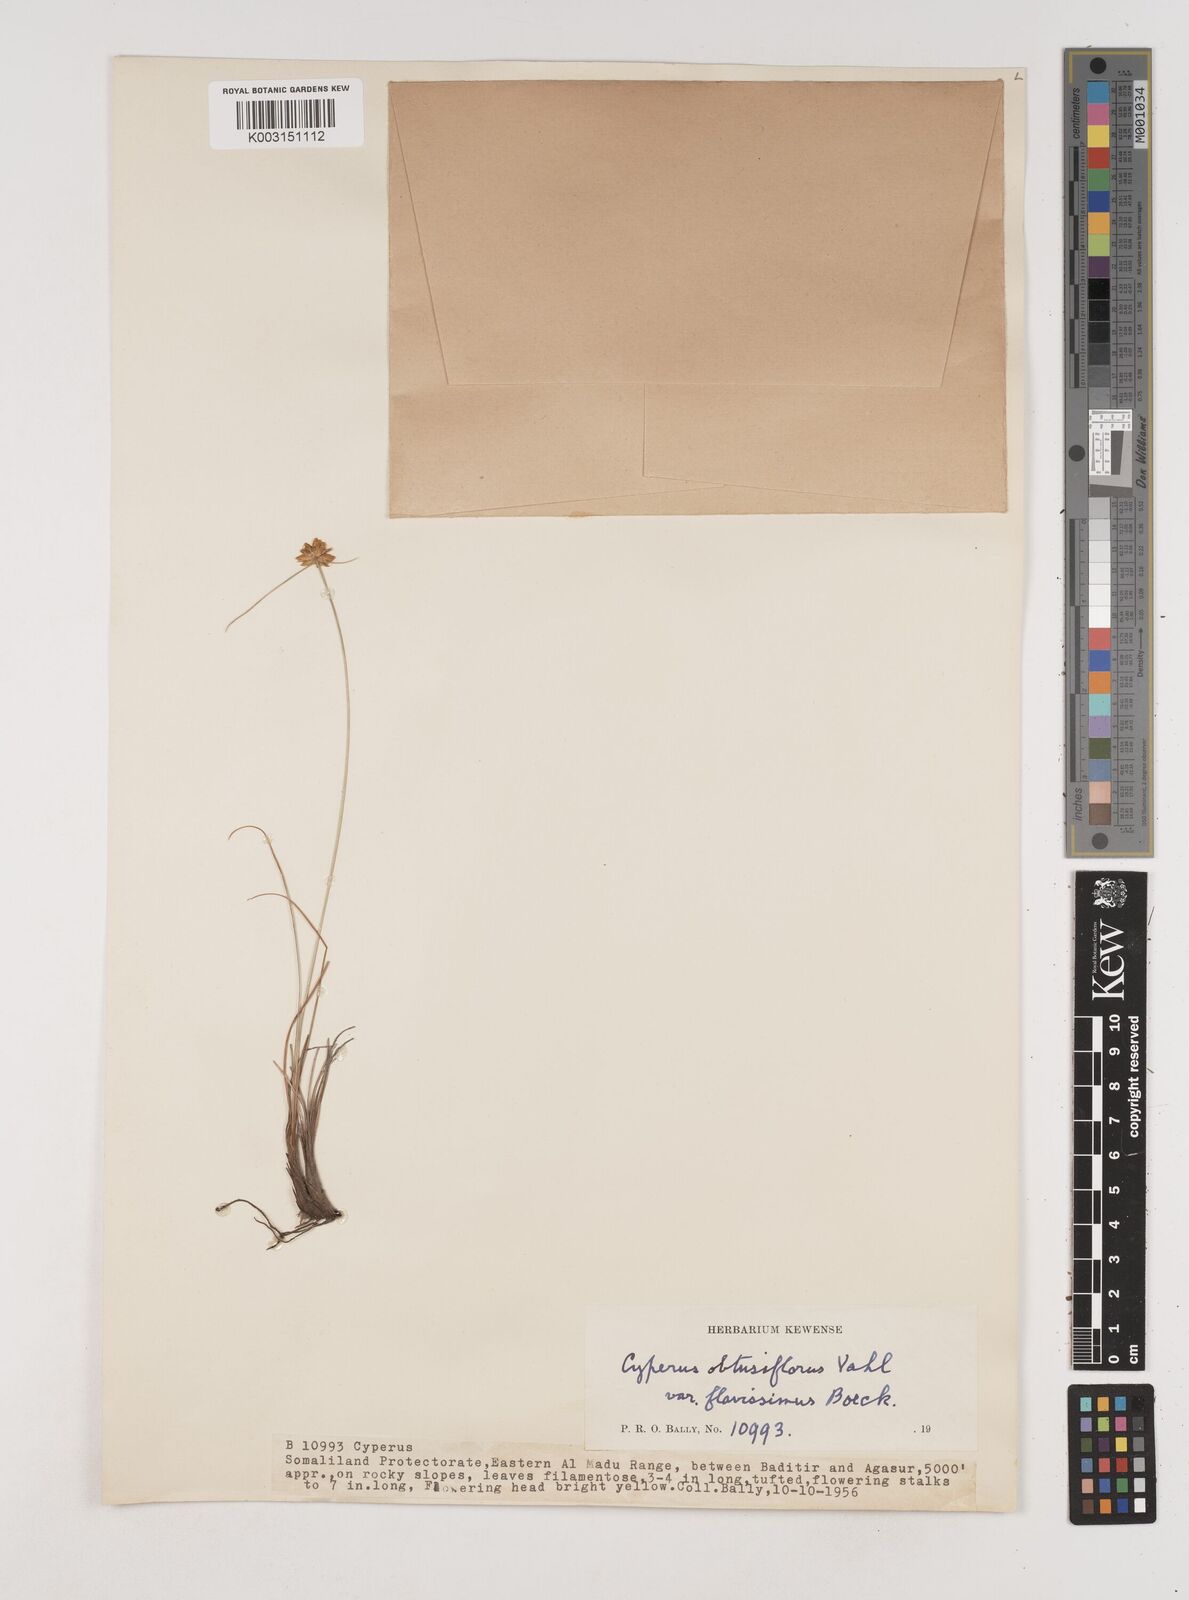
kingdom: Plantae
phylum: Tracheophyta
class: Liliopsida
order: Poales
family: Cyperaceae
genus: Cyperus
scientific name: Cyperus niveus
